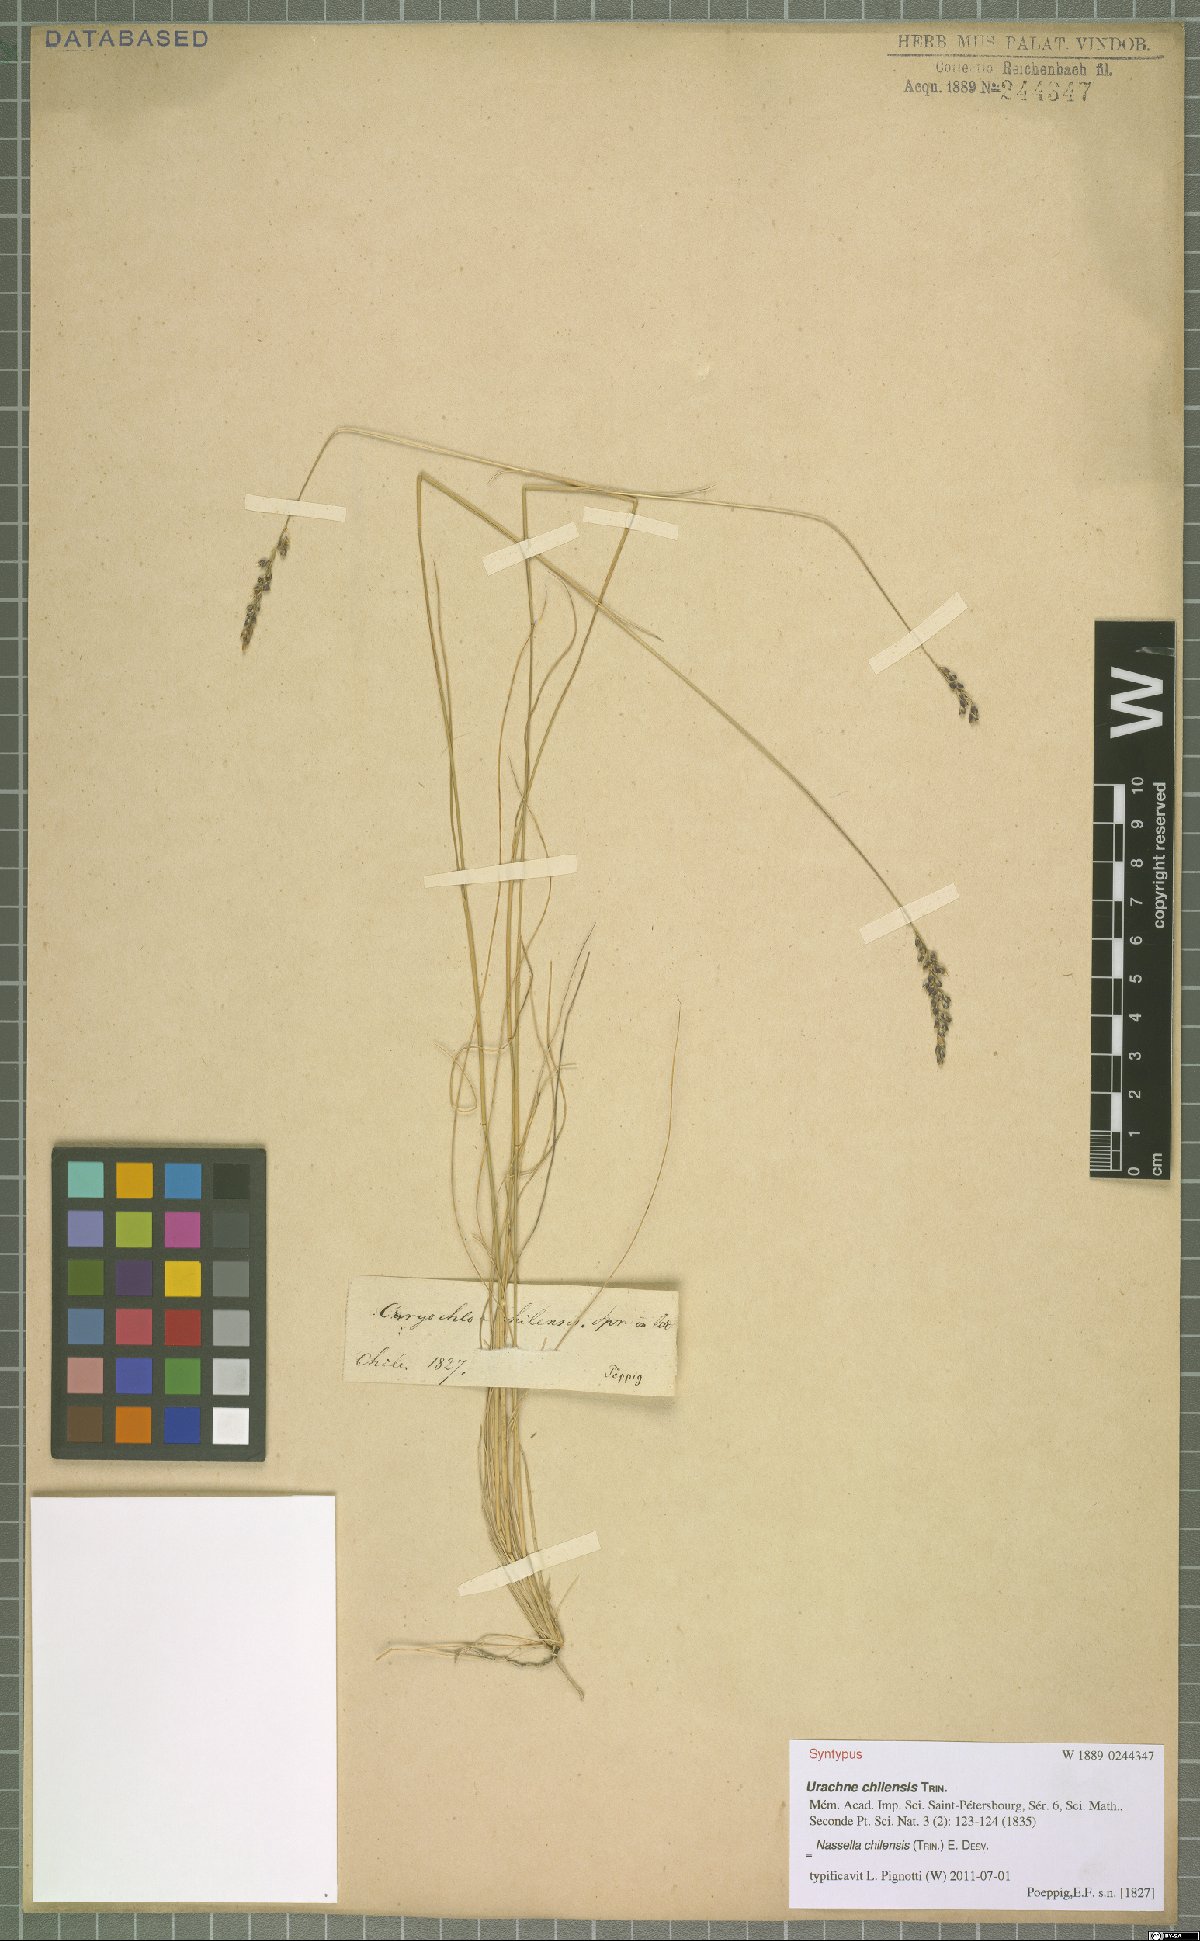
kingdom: Plantae
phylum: Tracheophyta
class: Liliopsida
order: Poales
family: Poaceae
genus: Nassella
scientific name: Nassella chilensis
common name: Chilean needlegrass
